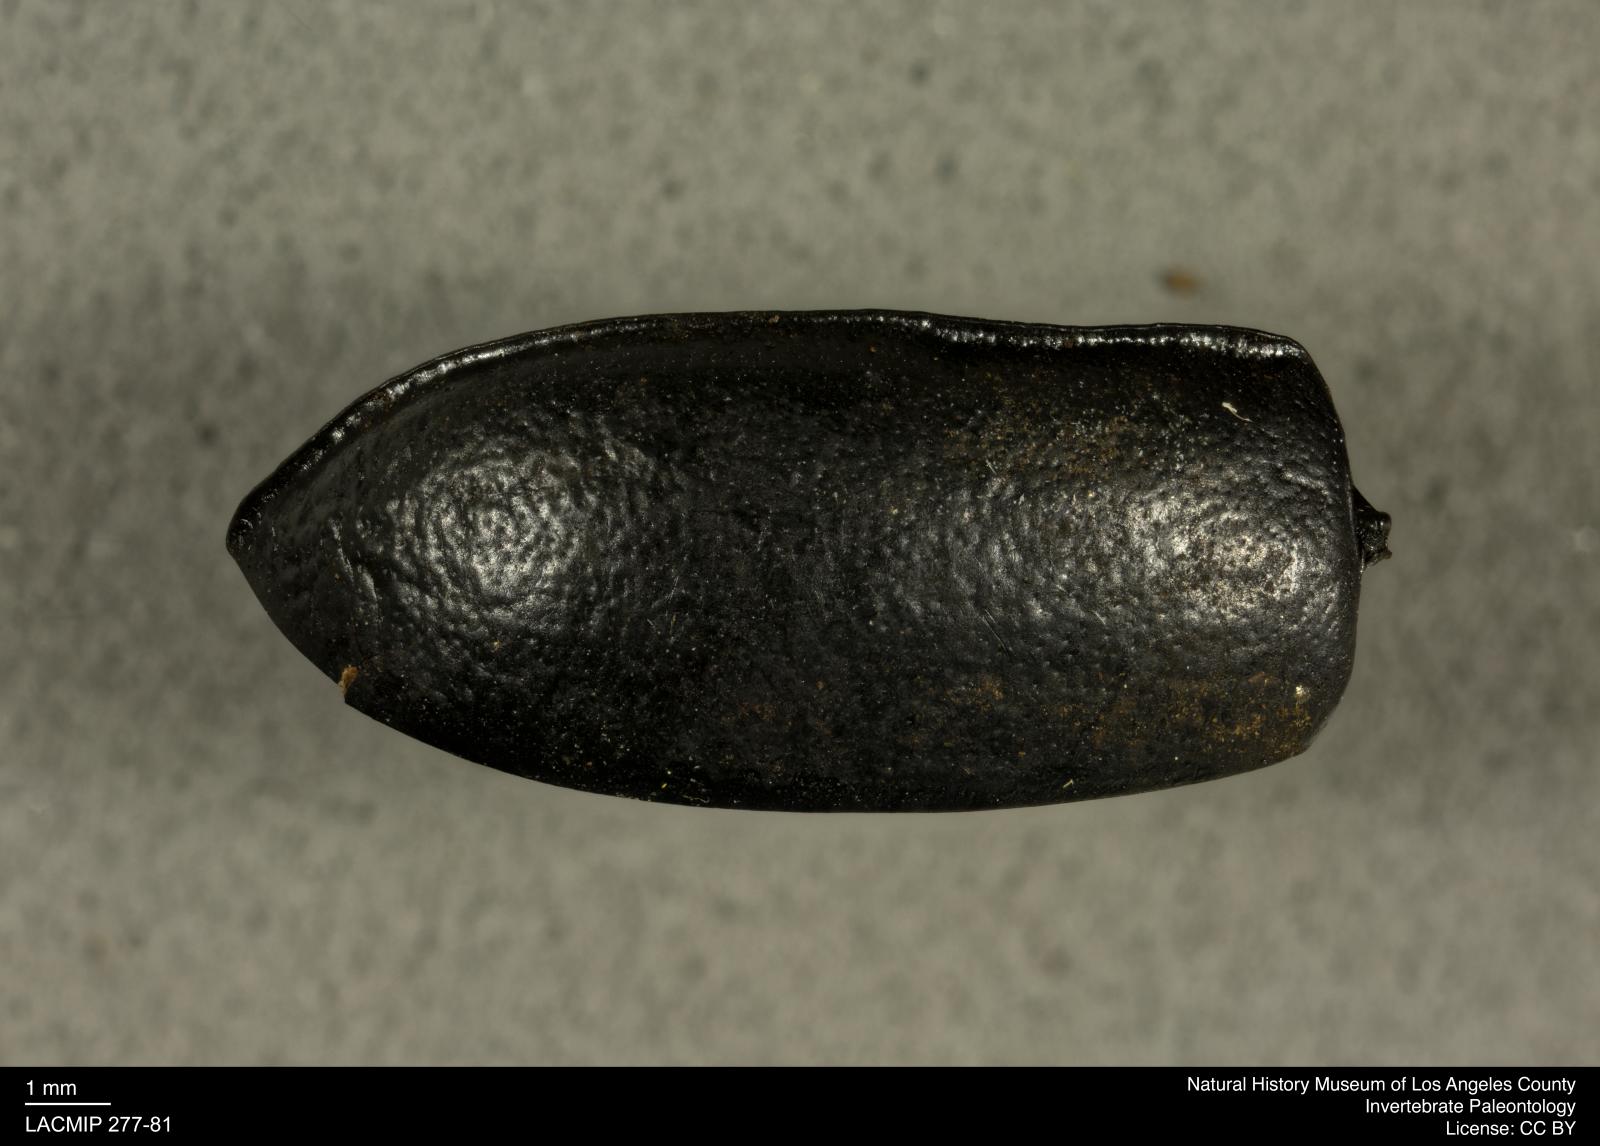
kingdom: Animalia
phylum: Arthropoda
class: Insecta
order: Coleoptera
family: Tenebrionidae
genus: Coniontis
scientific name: Coniontis abdominalis
